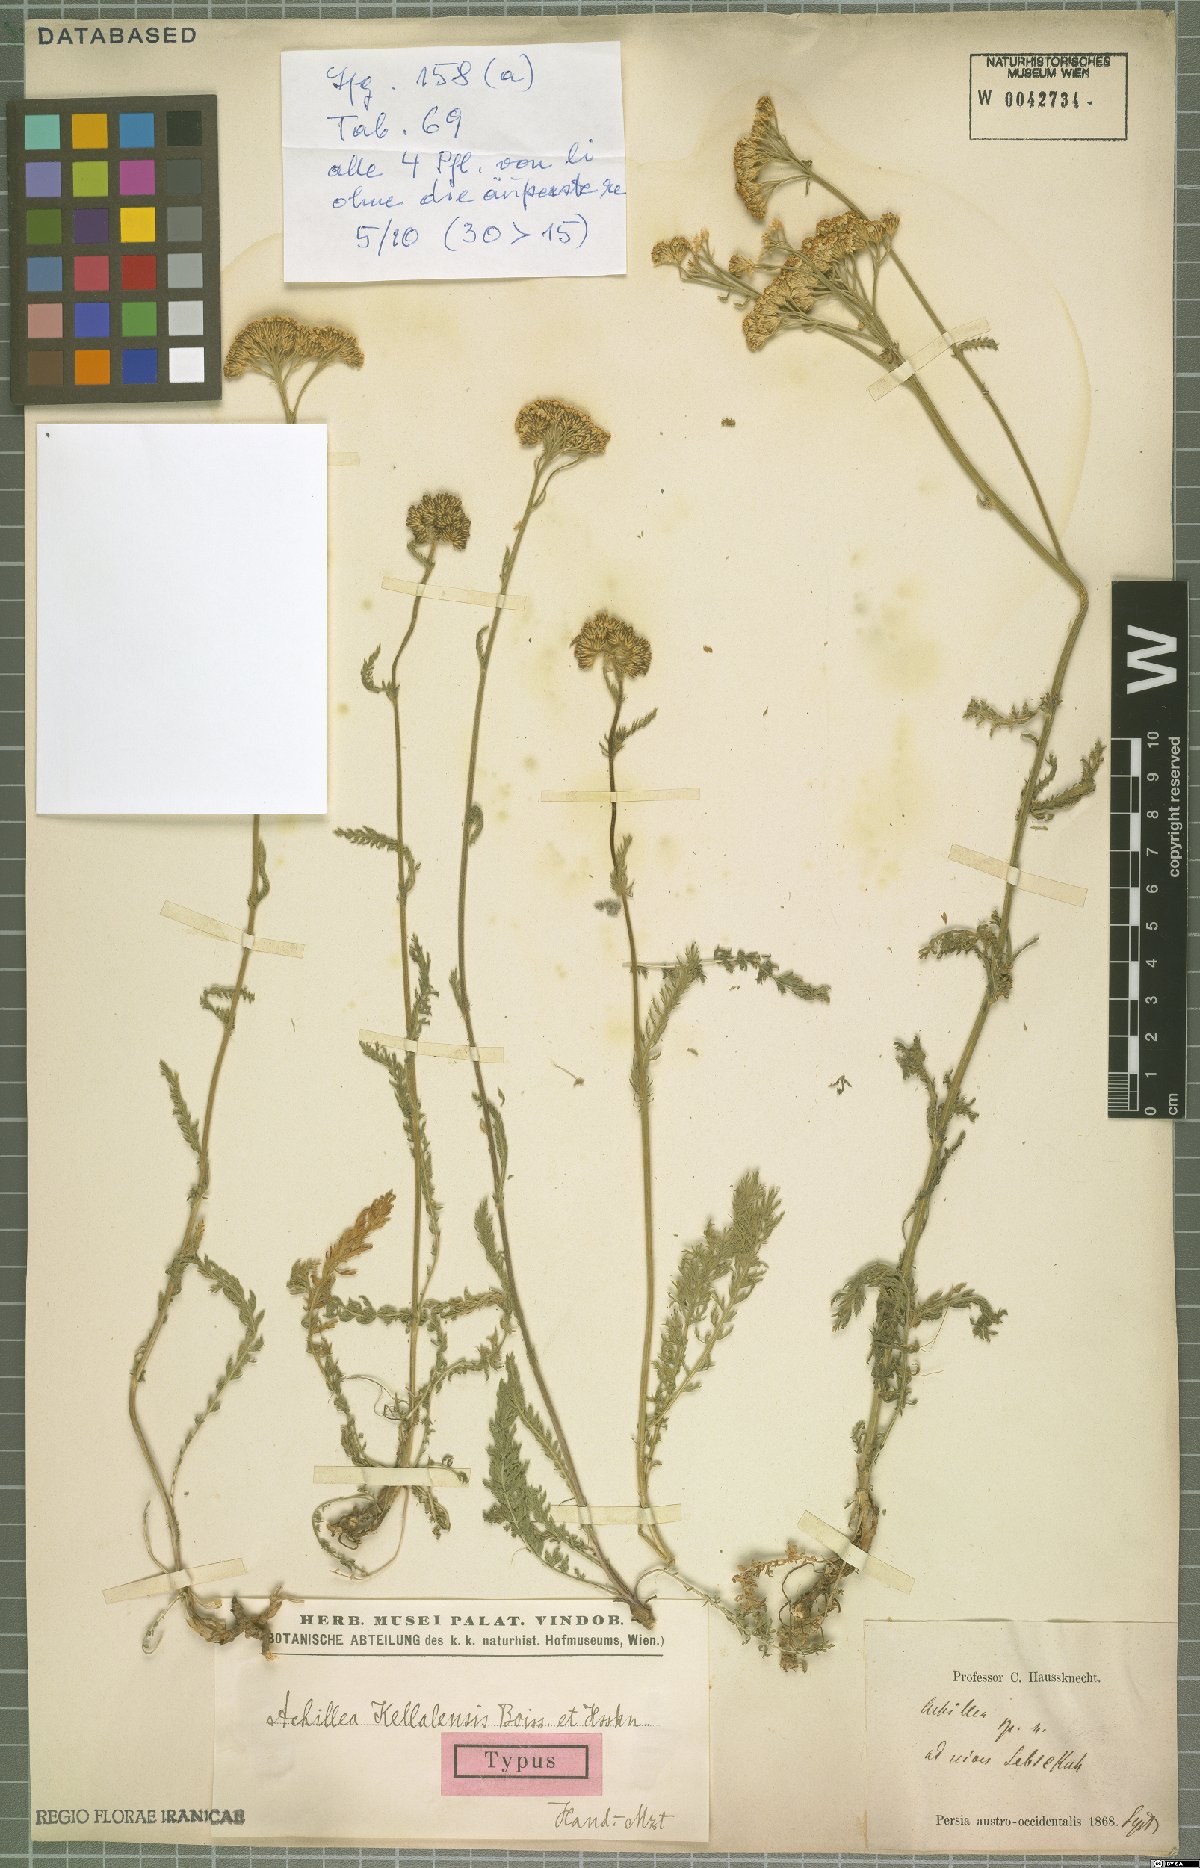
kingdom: Plantae
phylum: Tracheophyta
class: Magnoliopsida
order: Asterales
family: Asteraceae
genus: Achillea
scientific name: Achillea kellalensis
